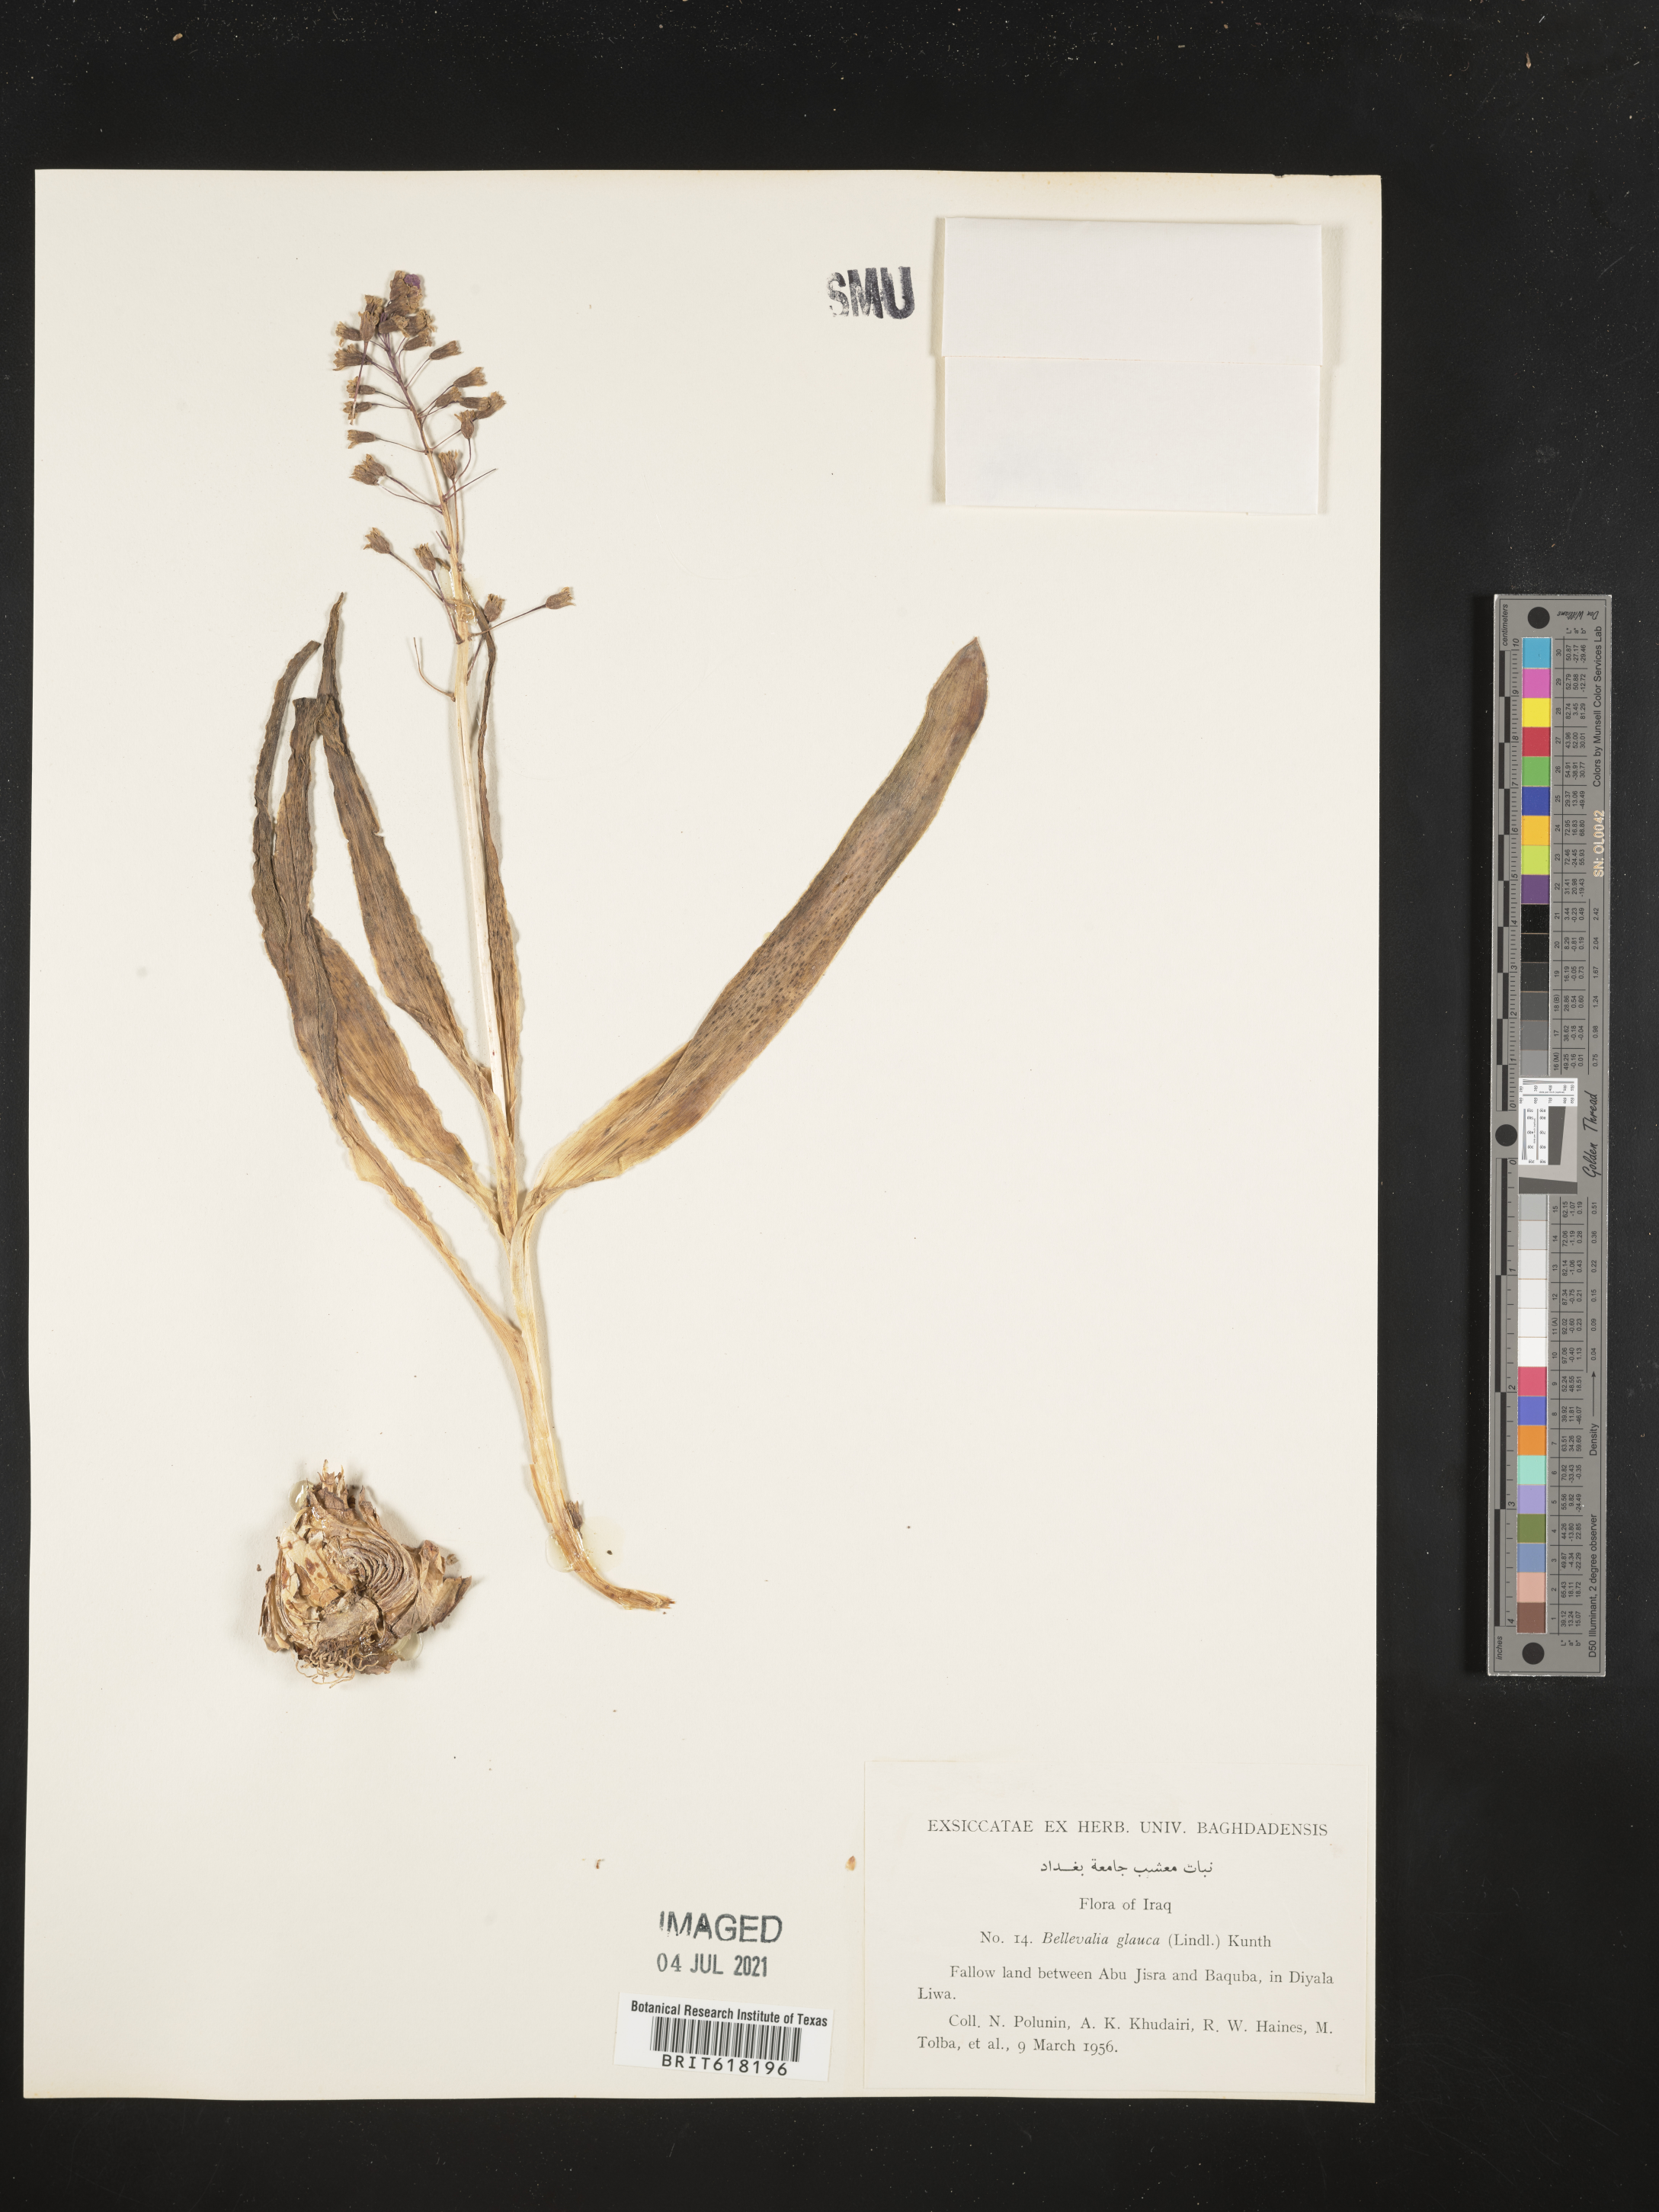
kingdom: Plantae
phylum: Tracheophyta
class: Liliopsida
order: Asparagales
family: Asparagaceae
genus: Bellevalia
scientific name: Bellevalia glauca
